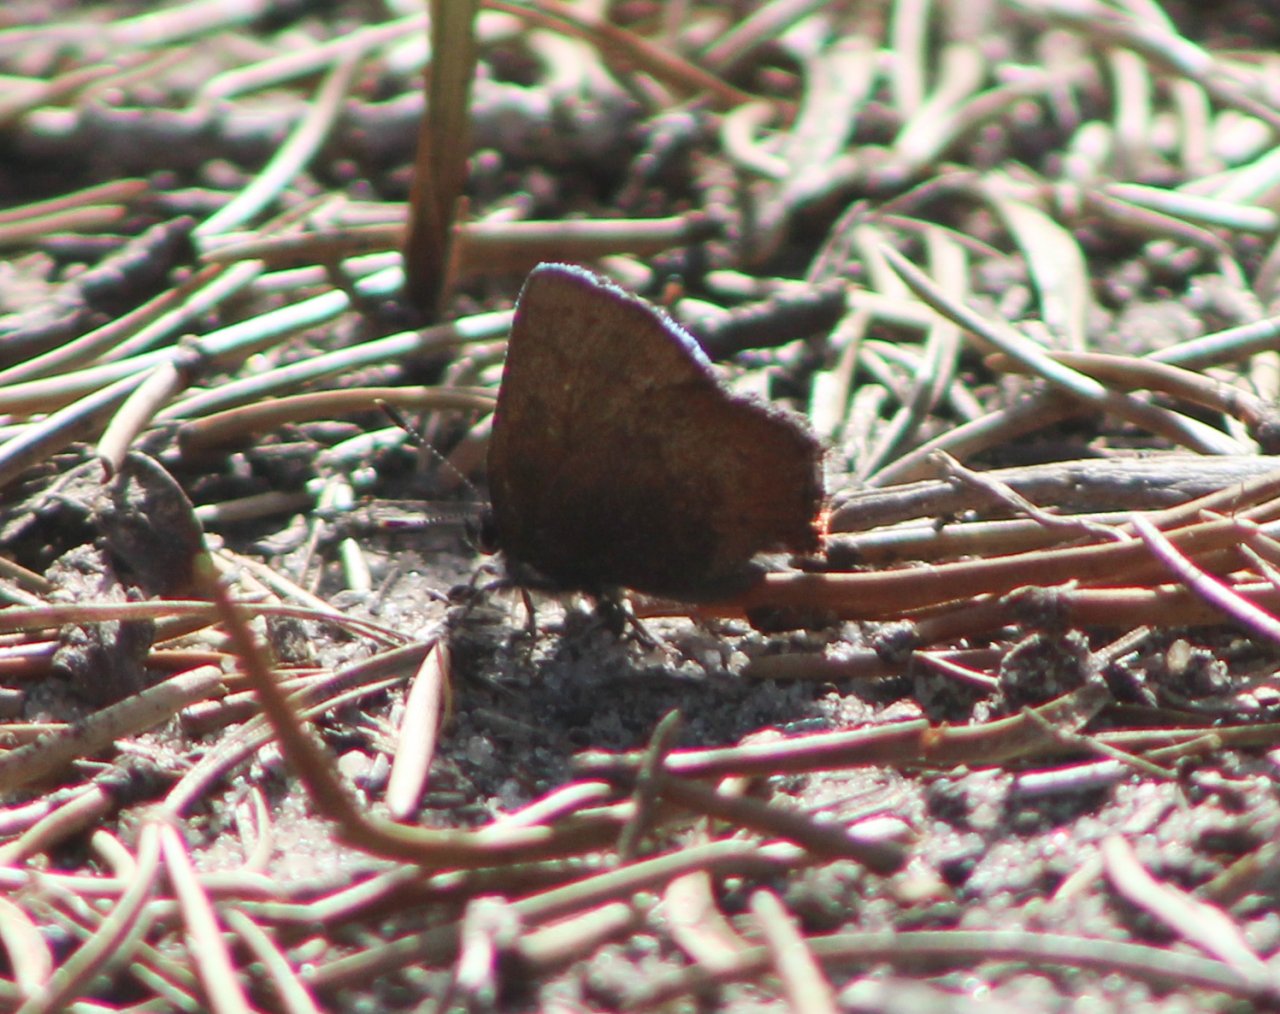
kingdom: Animalia
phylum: Arthropoda
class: Insecta
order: Lepidoptera
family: Lycaenidae
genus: Incisalia
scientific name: Incisalia irioides
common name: Brown Elfin
